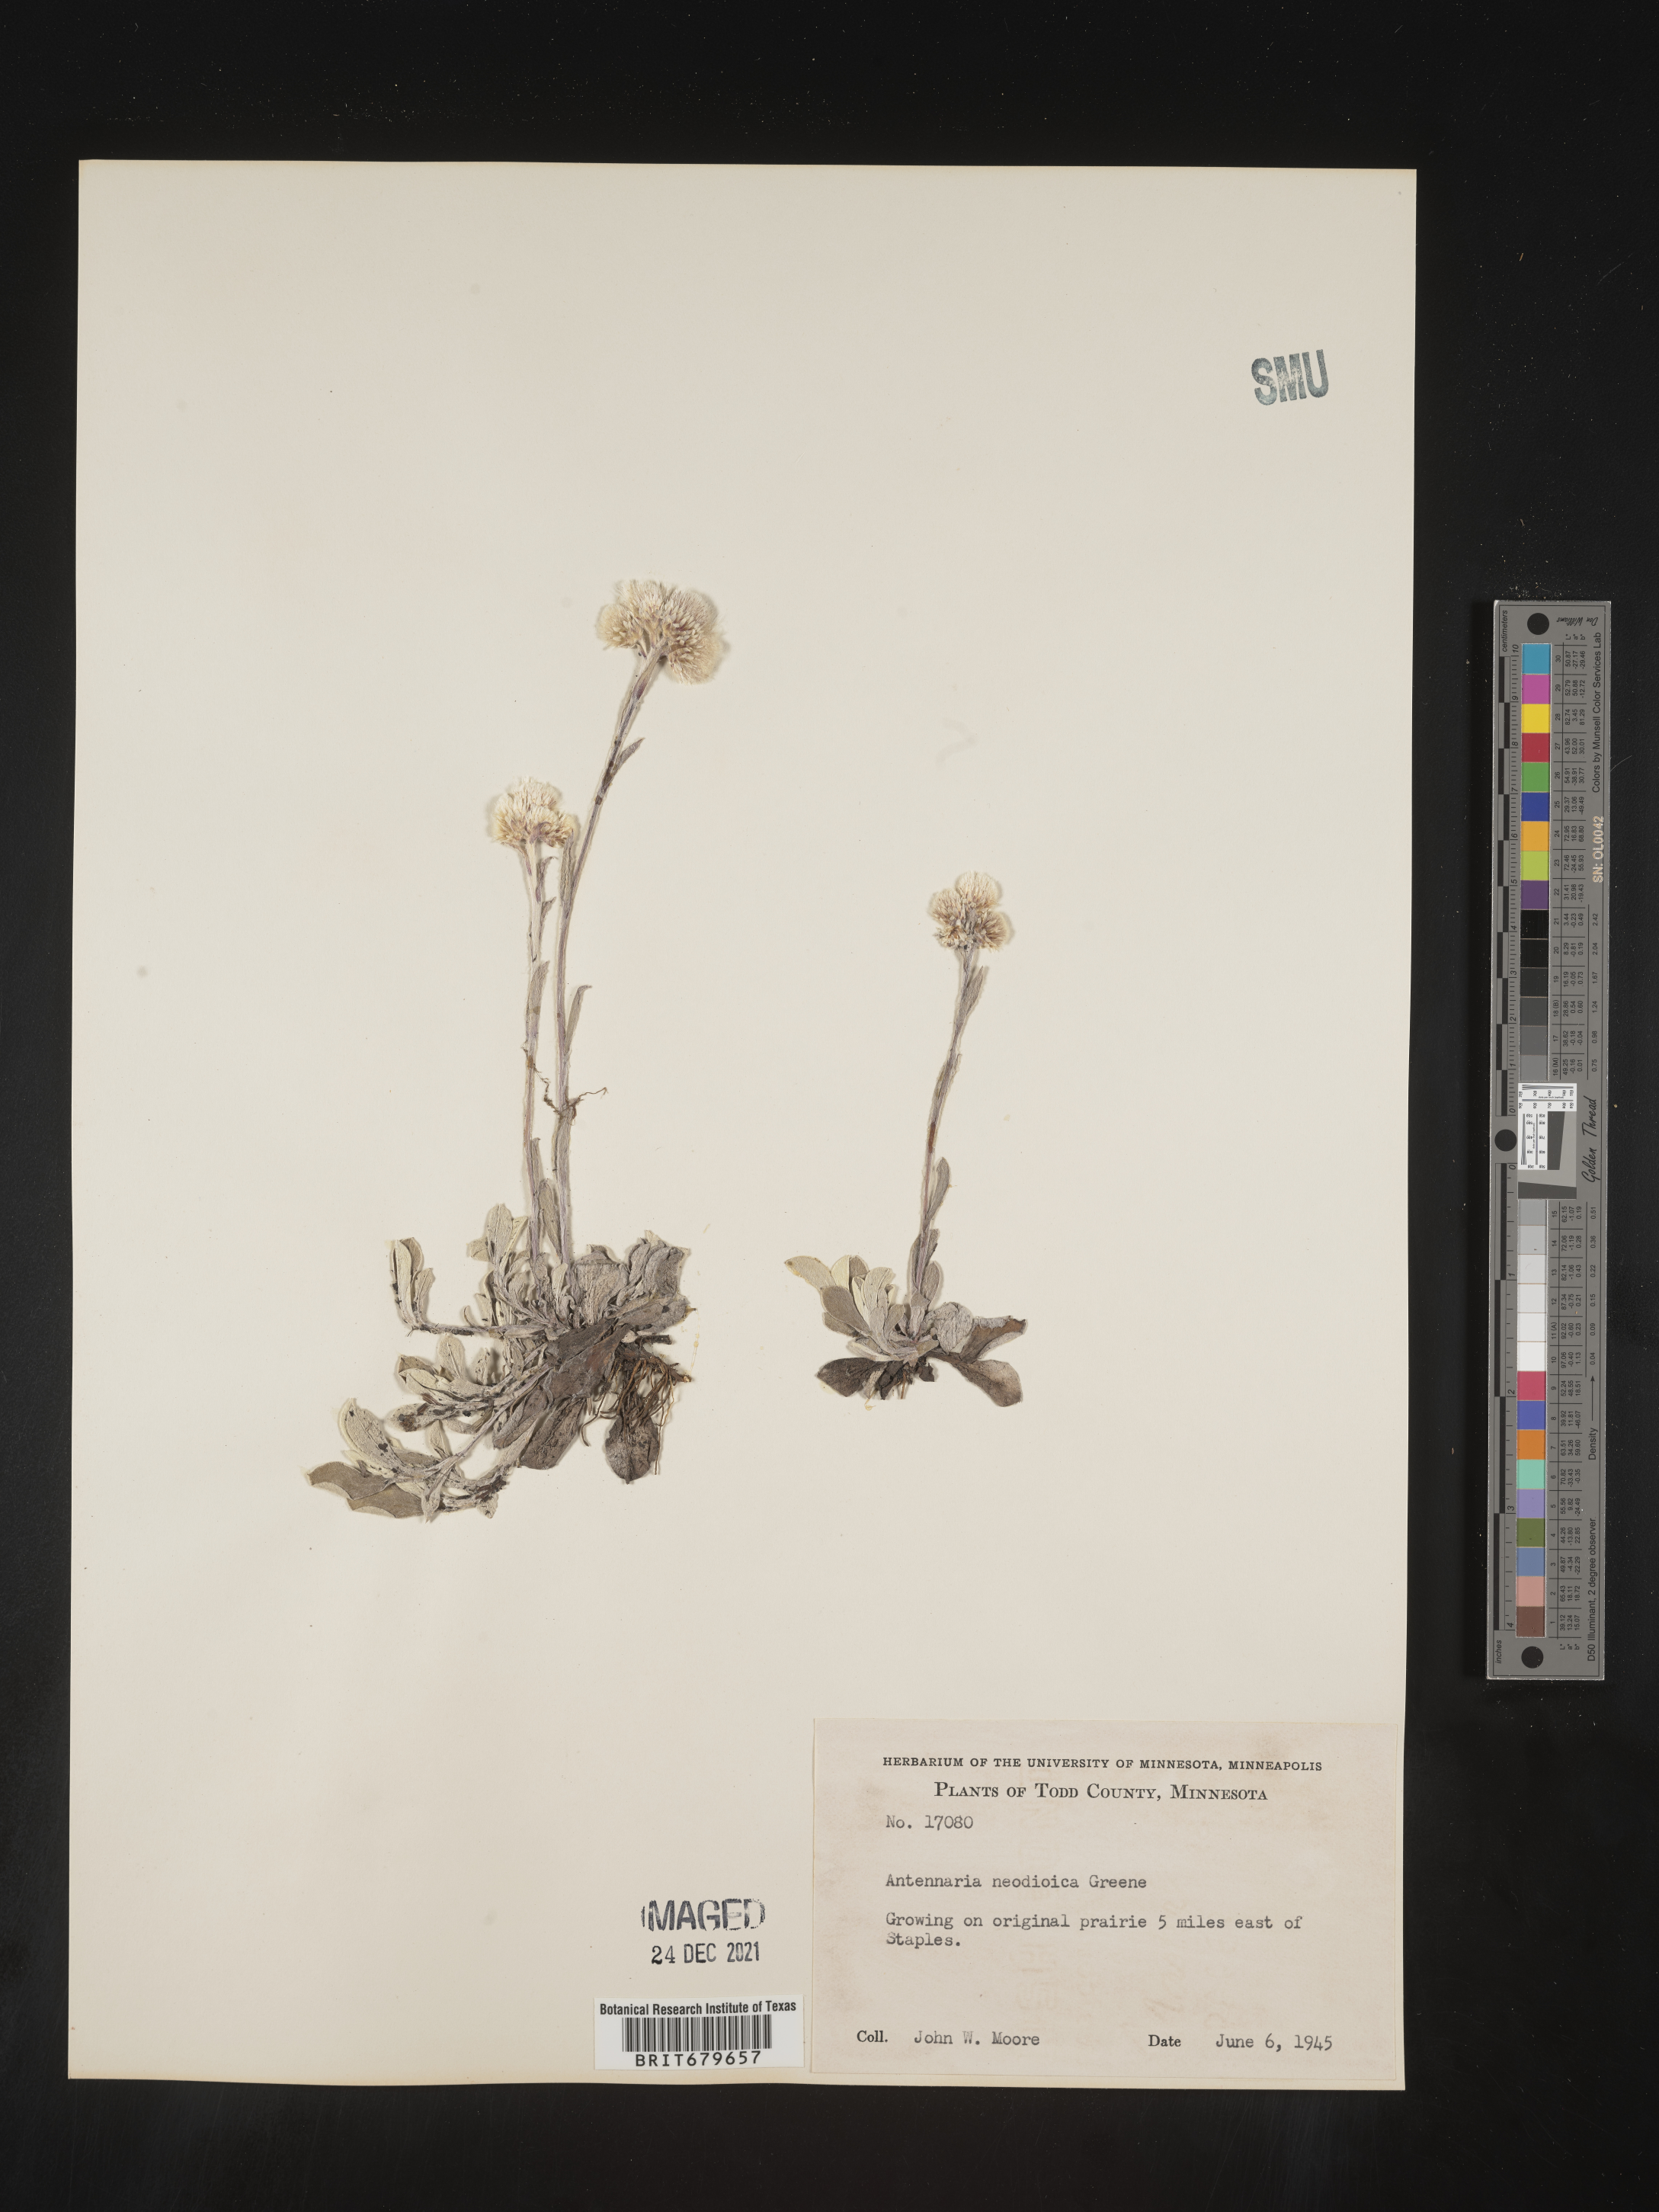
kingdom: Plantae
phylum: Tracheophyta
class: Magnoliopsida
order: Asterales
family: Asteraceae
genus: Antennaria
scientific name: Antennaria howellii
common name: Howell's pussytoes
